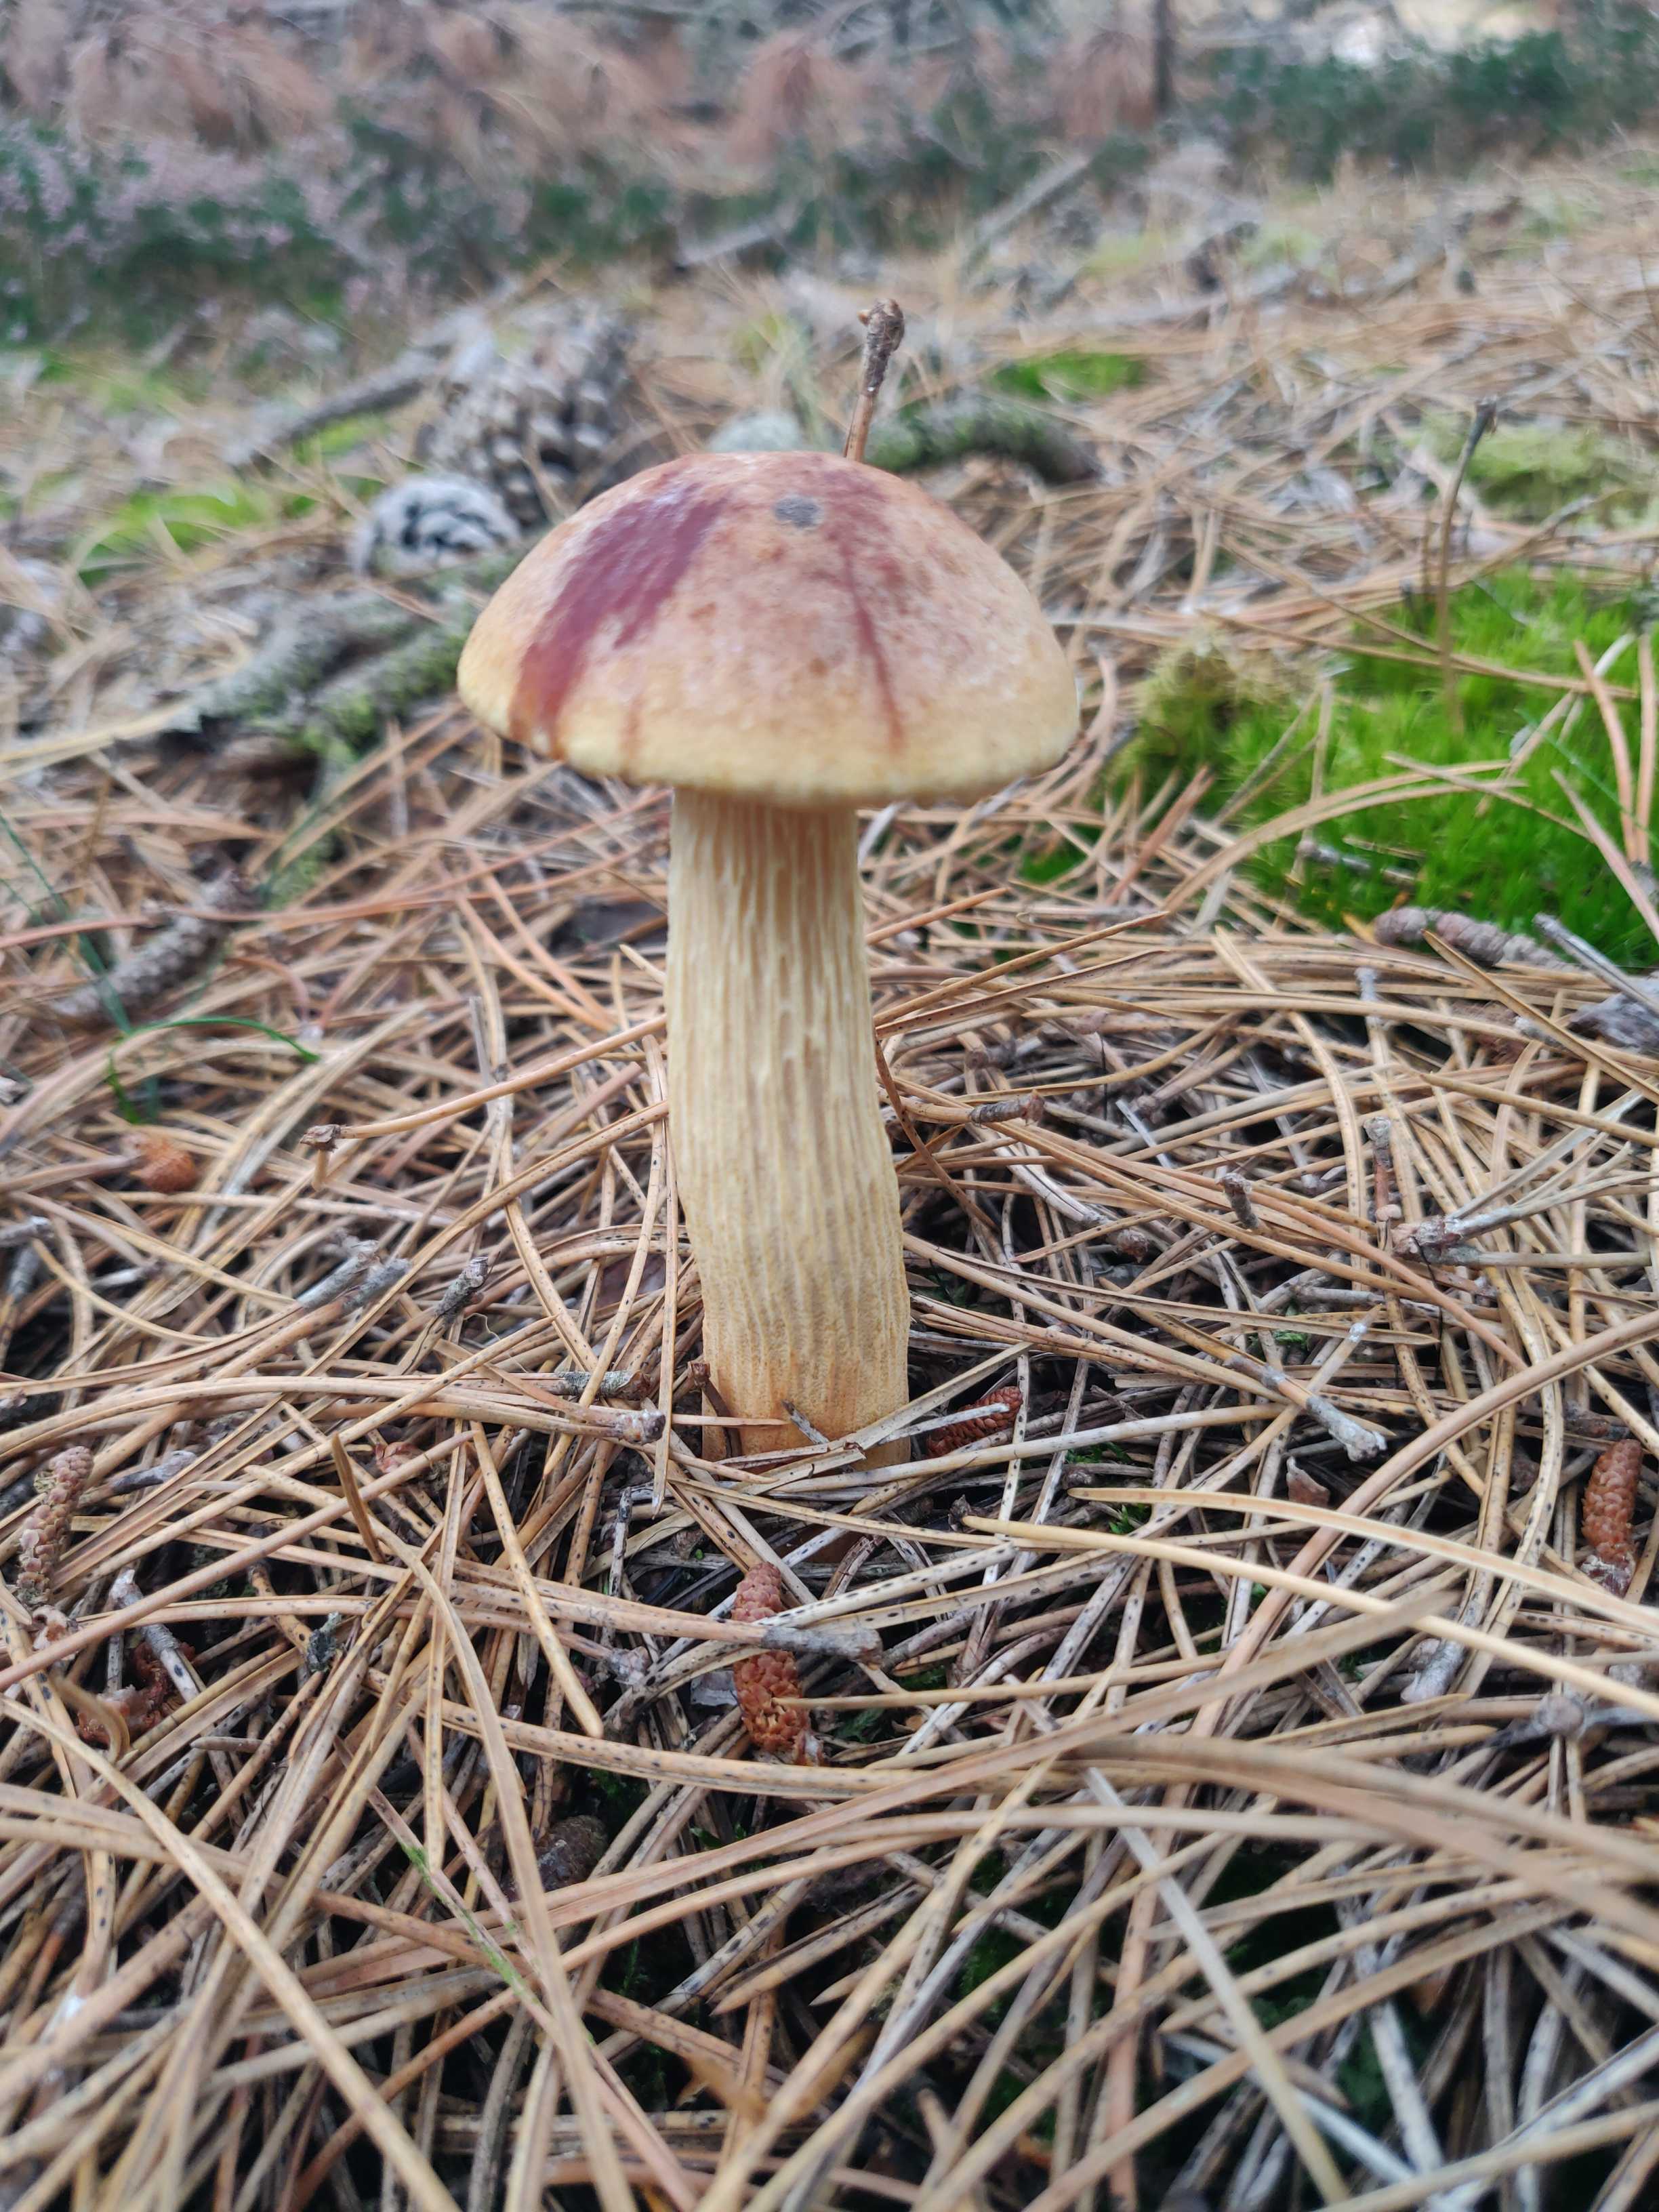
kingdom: Fungi
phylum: Basidiomycota
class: Agaricomycetes
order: Boletales
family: Boletaceae
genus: Aureoboletus
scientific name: Aureoboletus projectellus
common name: ribbestokket rørhat
